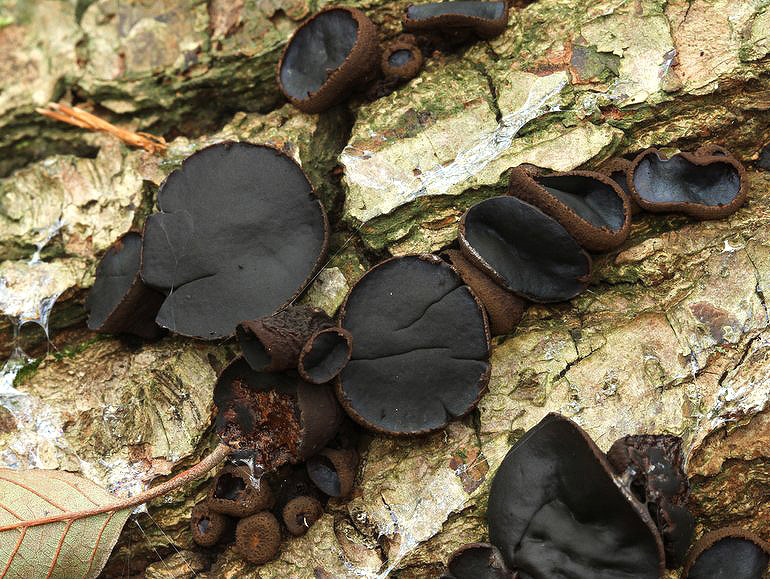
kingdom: Fungi
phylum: Ascomycota
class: Leotiomycetes
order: Phacidiales
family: Phacidiaceae
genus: Bulgaria
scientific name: Bulgaria inquinans
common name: afsmittende topsvamp
